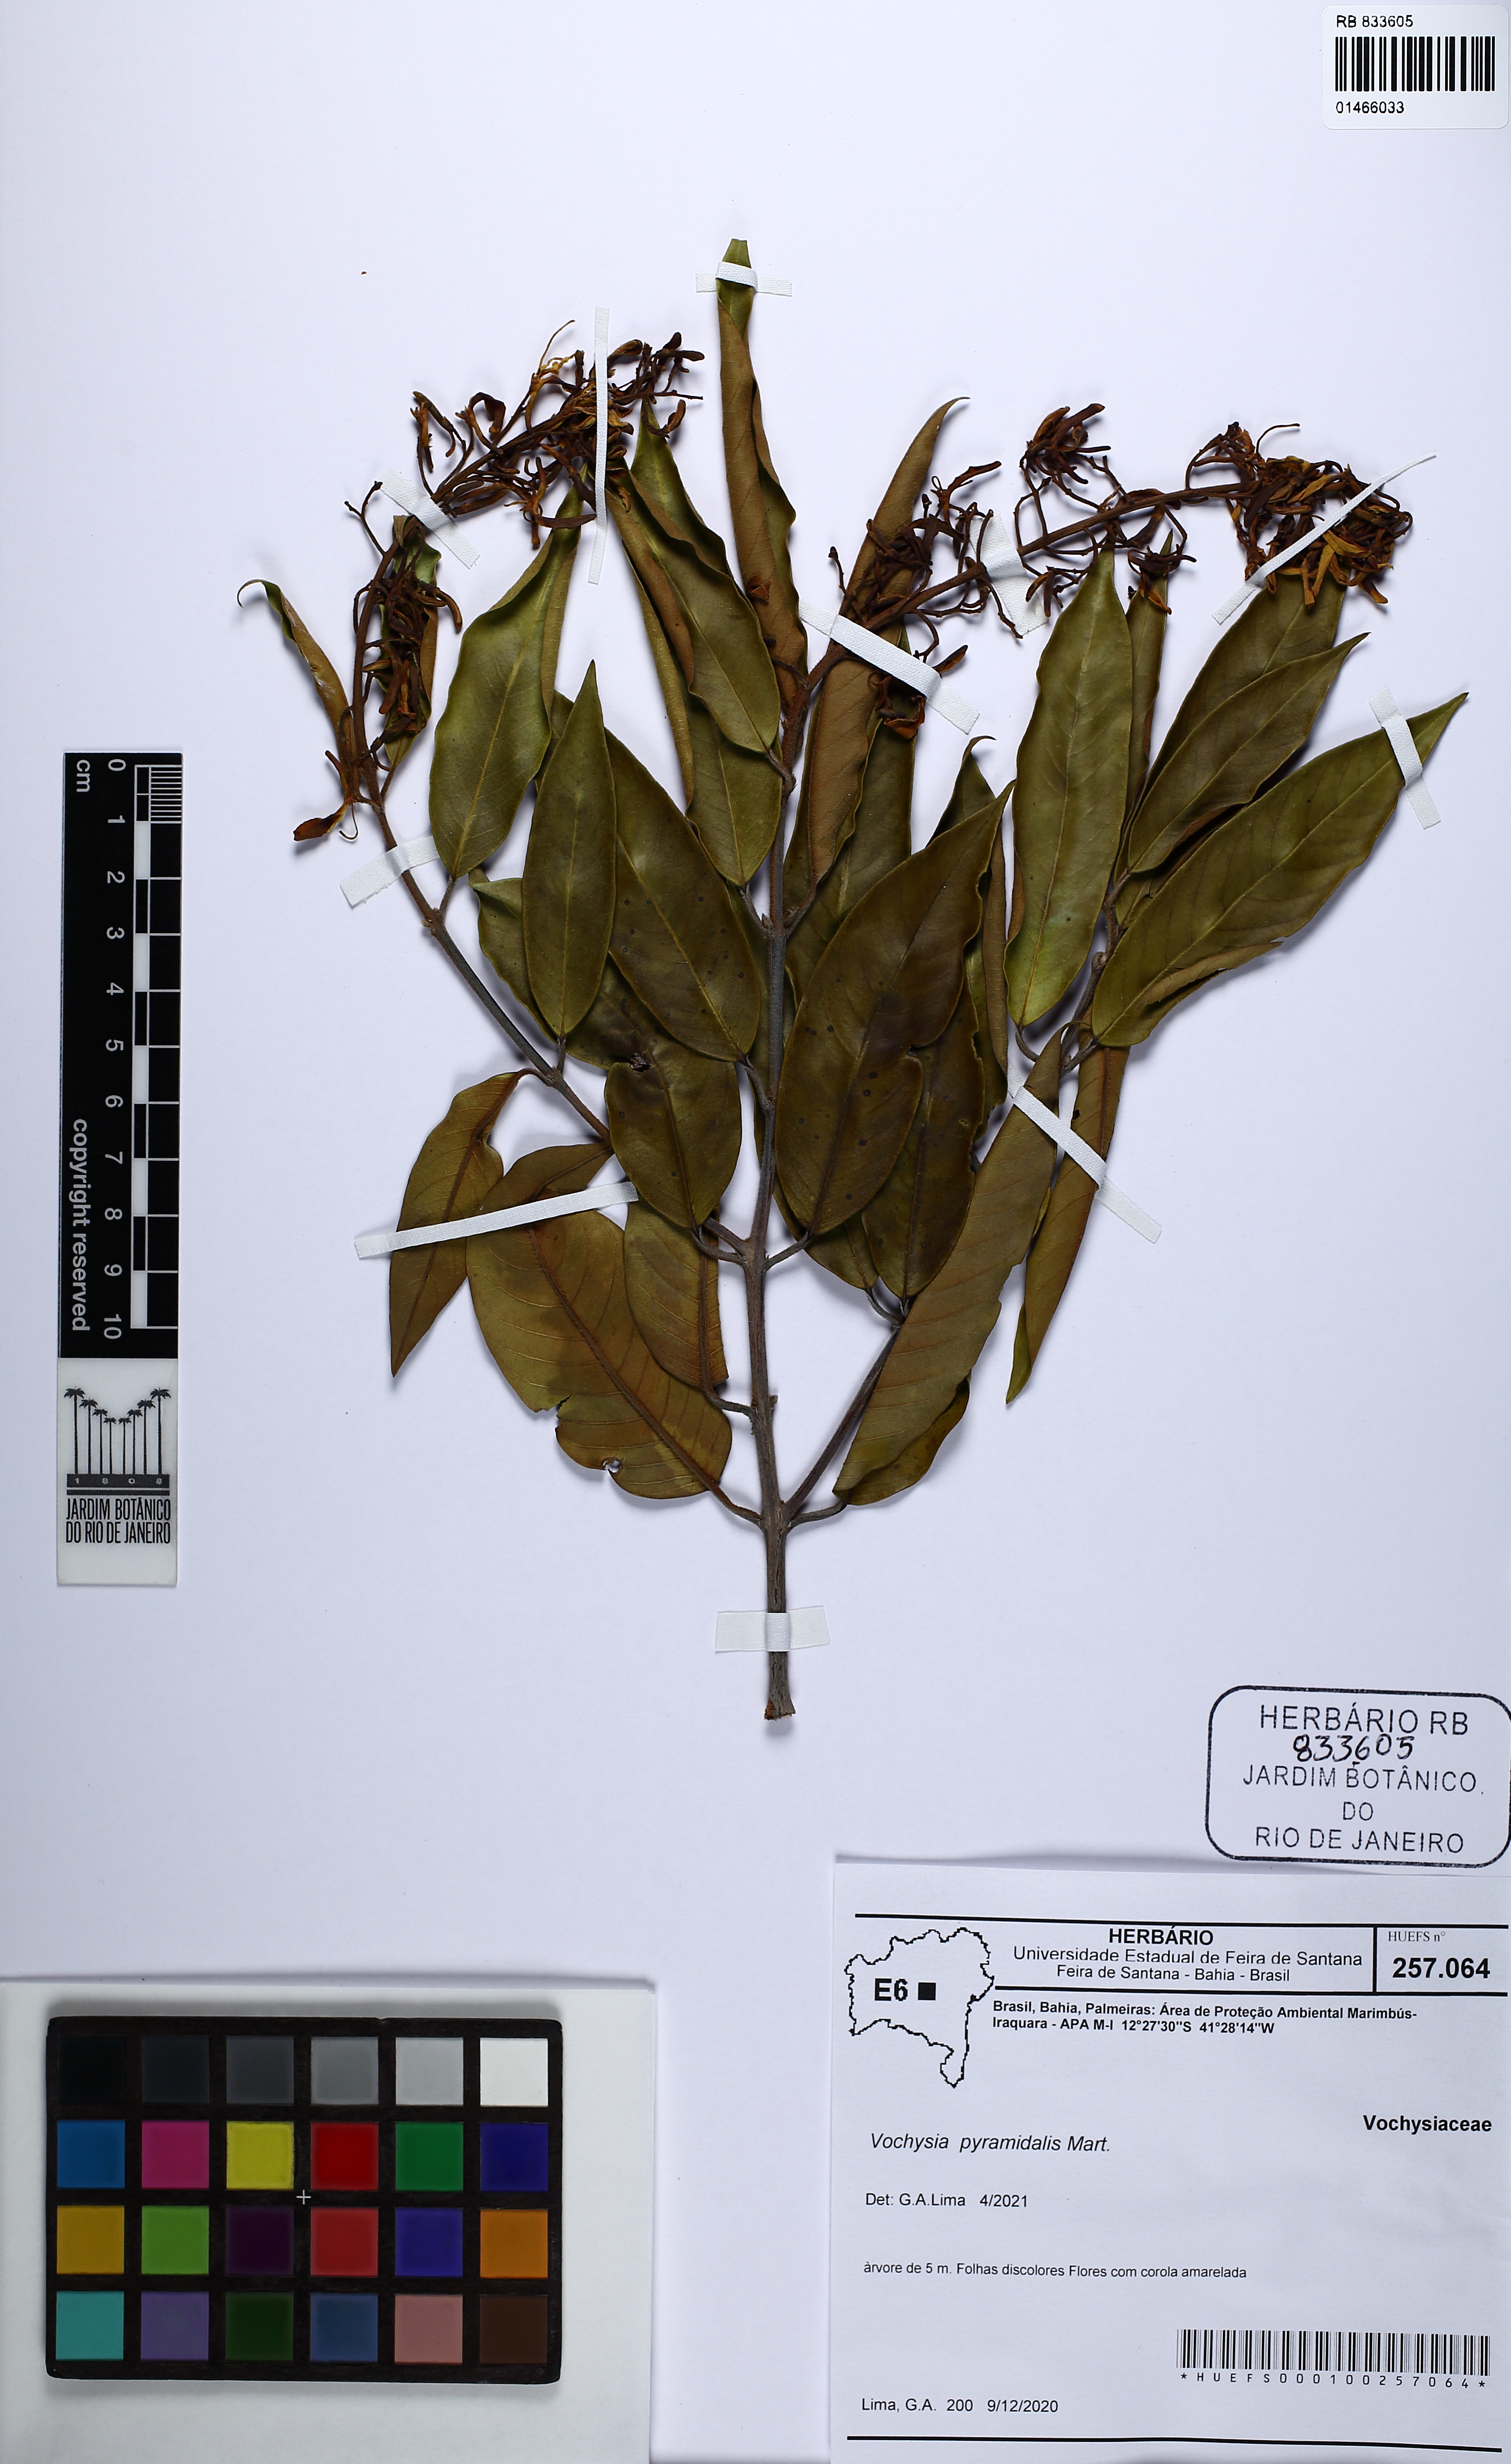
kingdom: Plantae
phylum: Tracheophyta
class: Magnoliopsida
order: Myrtales
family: Vochysiaceae
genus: Vochysia
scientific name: Vochysia pyramidalis
